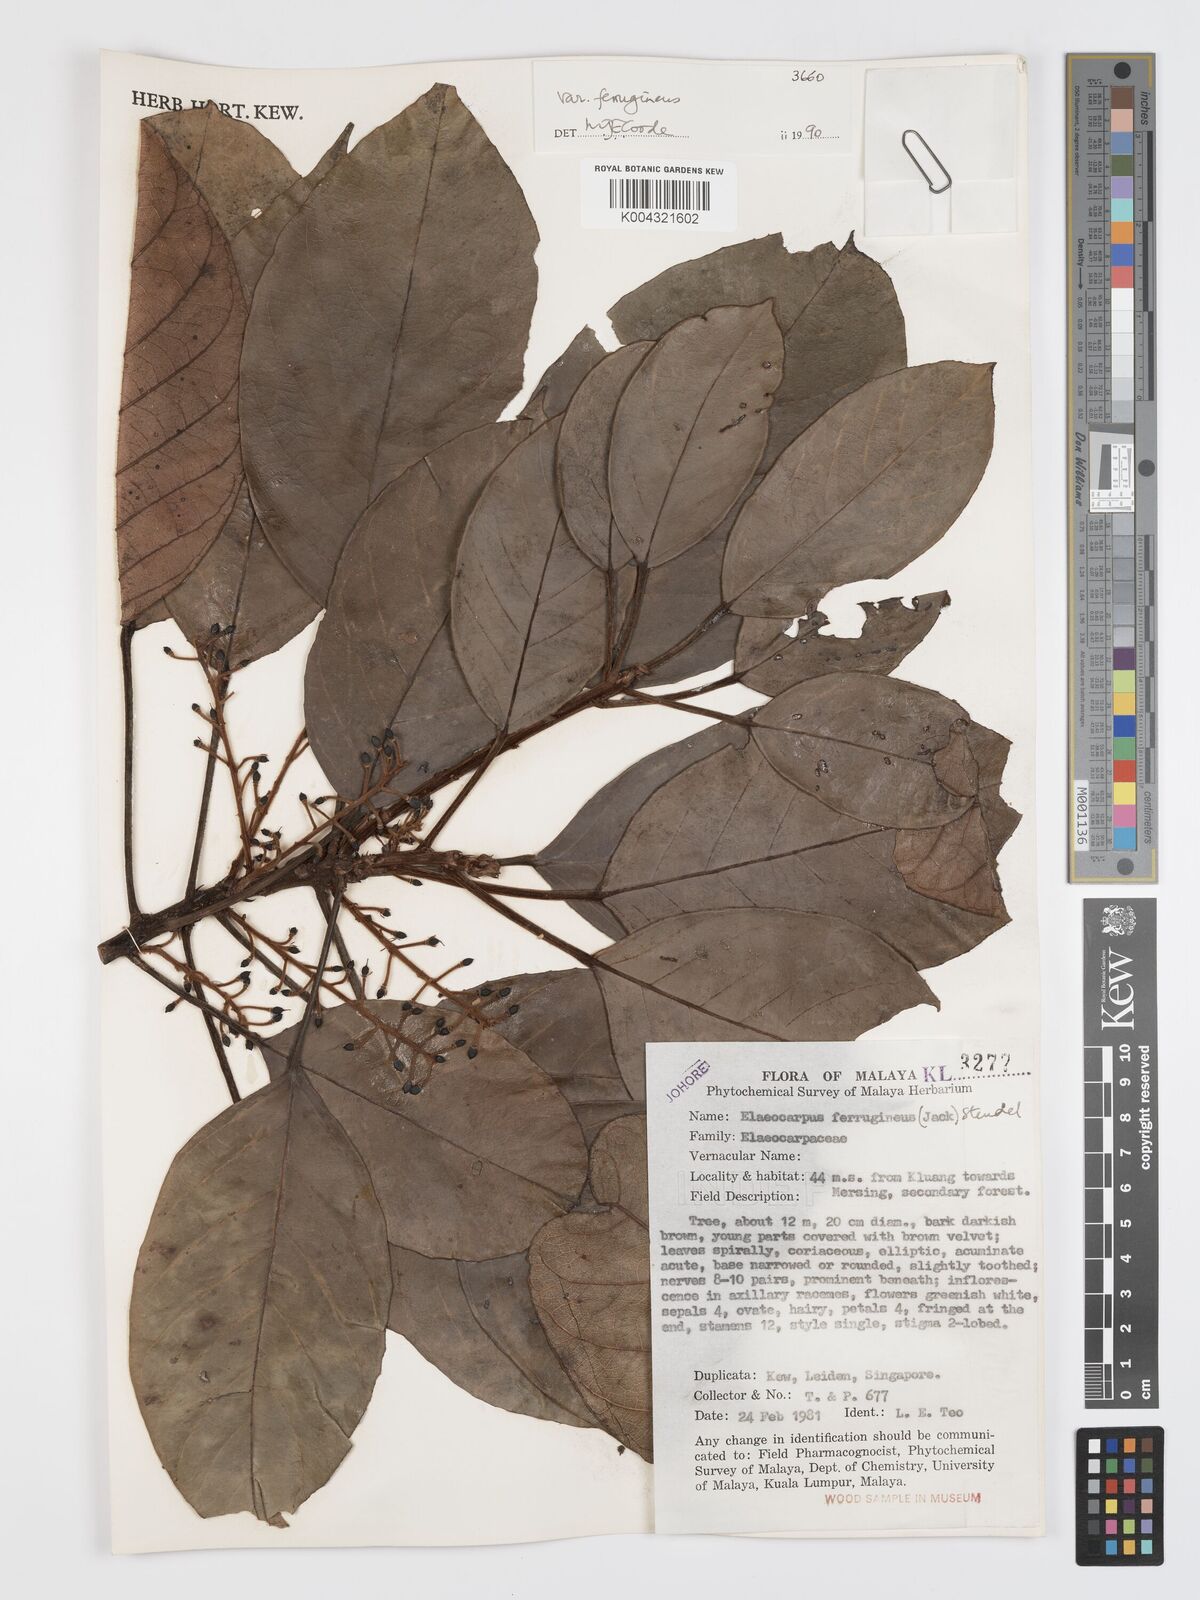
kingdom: Plantae
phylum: Tracheophyta
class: Magnoliopsida
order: Oxalidales
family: Elaeocarpaceae
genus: Elaeocarpus
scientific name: Elaeocarpus ferrugineus
